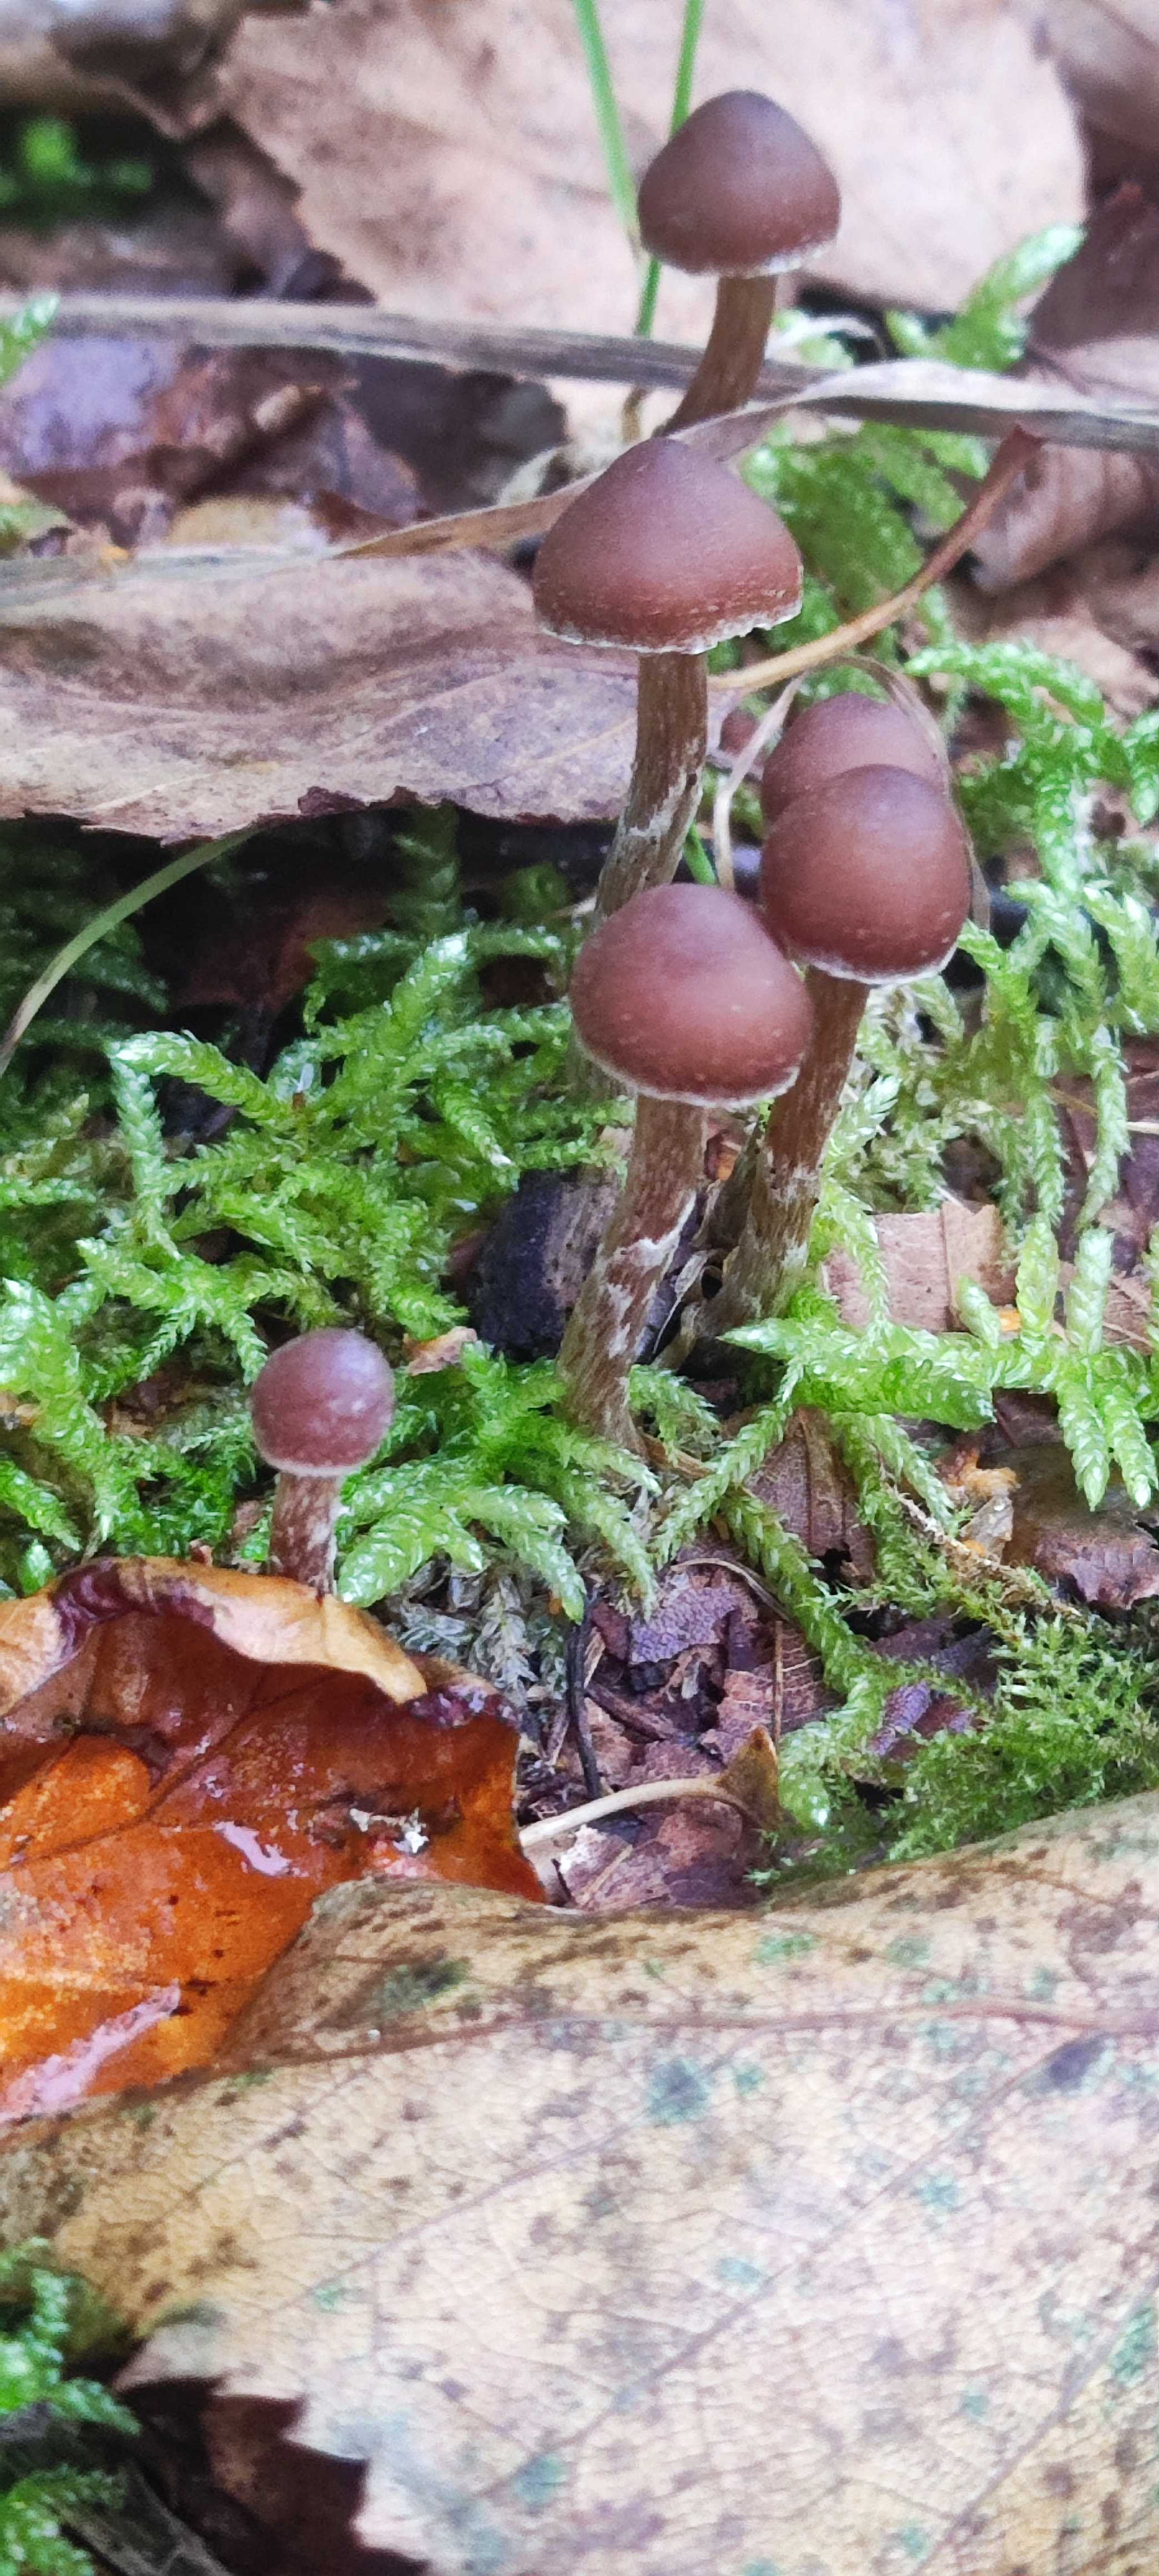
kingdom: Fungi
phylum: Basidiomycota
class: Agaricomycetes
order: Agaricales
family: Cortinariaceae
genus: Cortinarius
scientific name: Cortinarius umbrinolutescens
